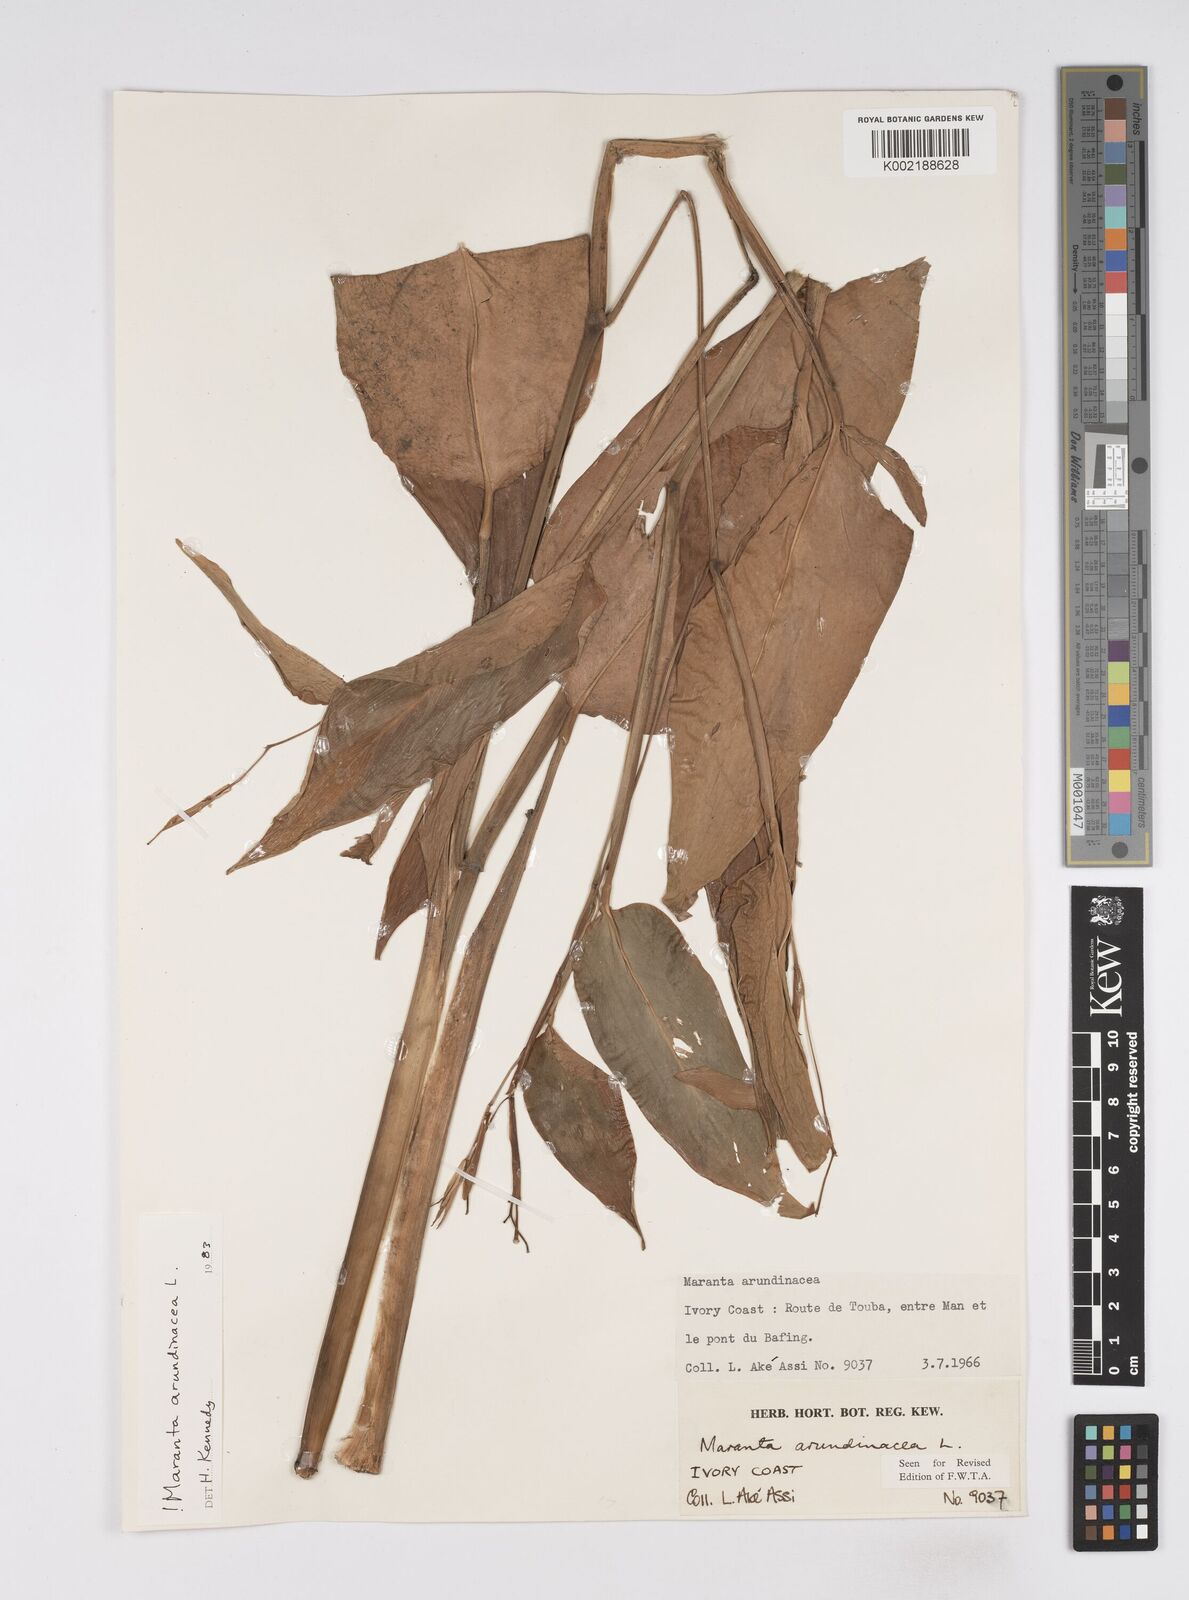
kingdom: Plantae
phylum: Tracheophyta
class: Liliopsida
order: Zingiberales
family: Marantaceae
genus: Maranta
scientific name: Maranta arundinacea
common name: Arrowroot
